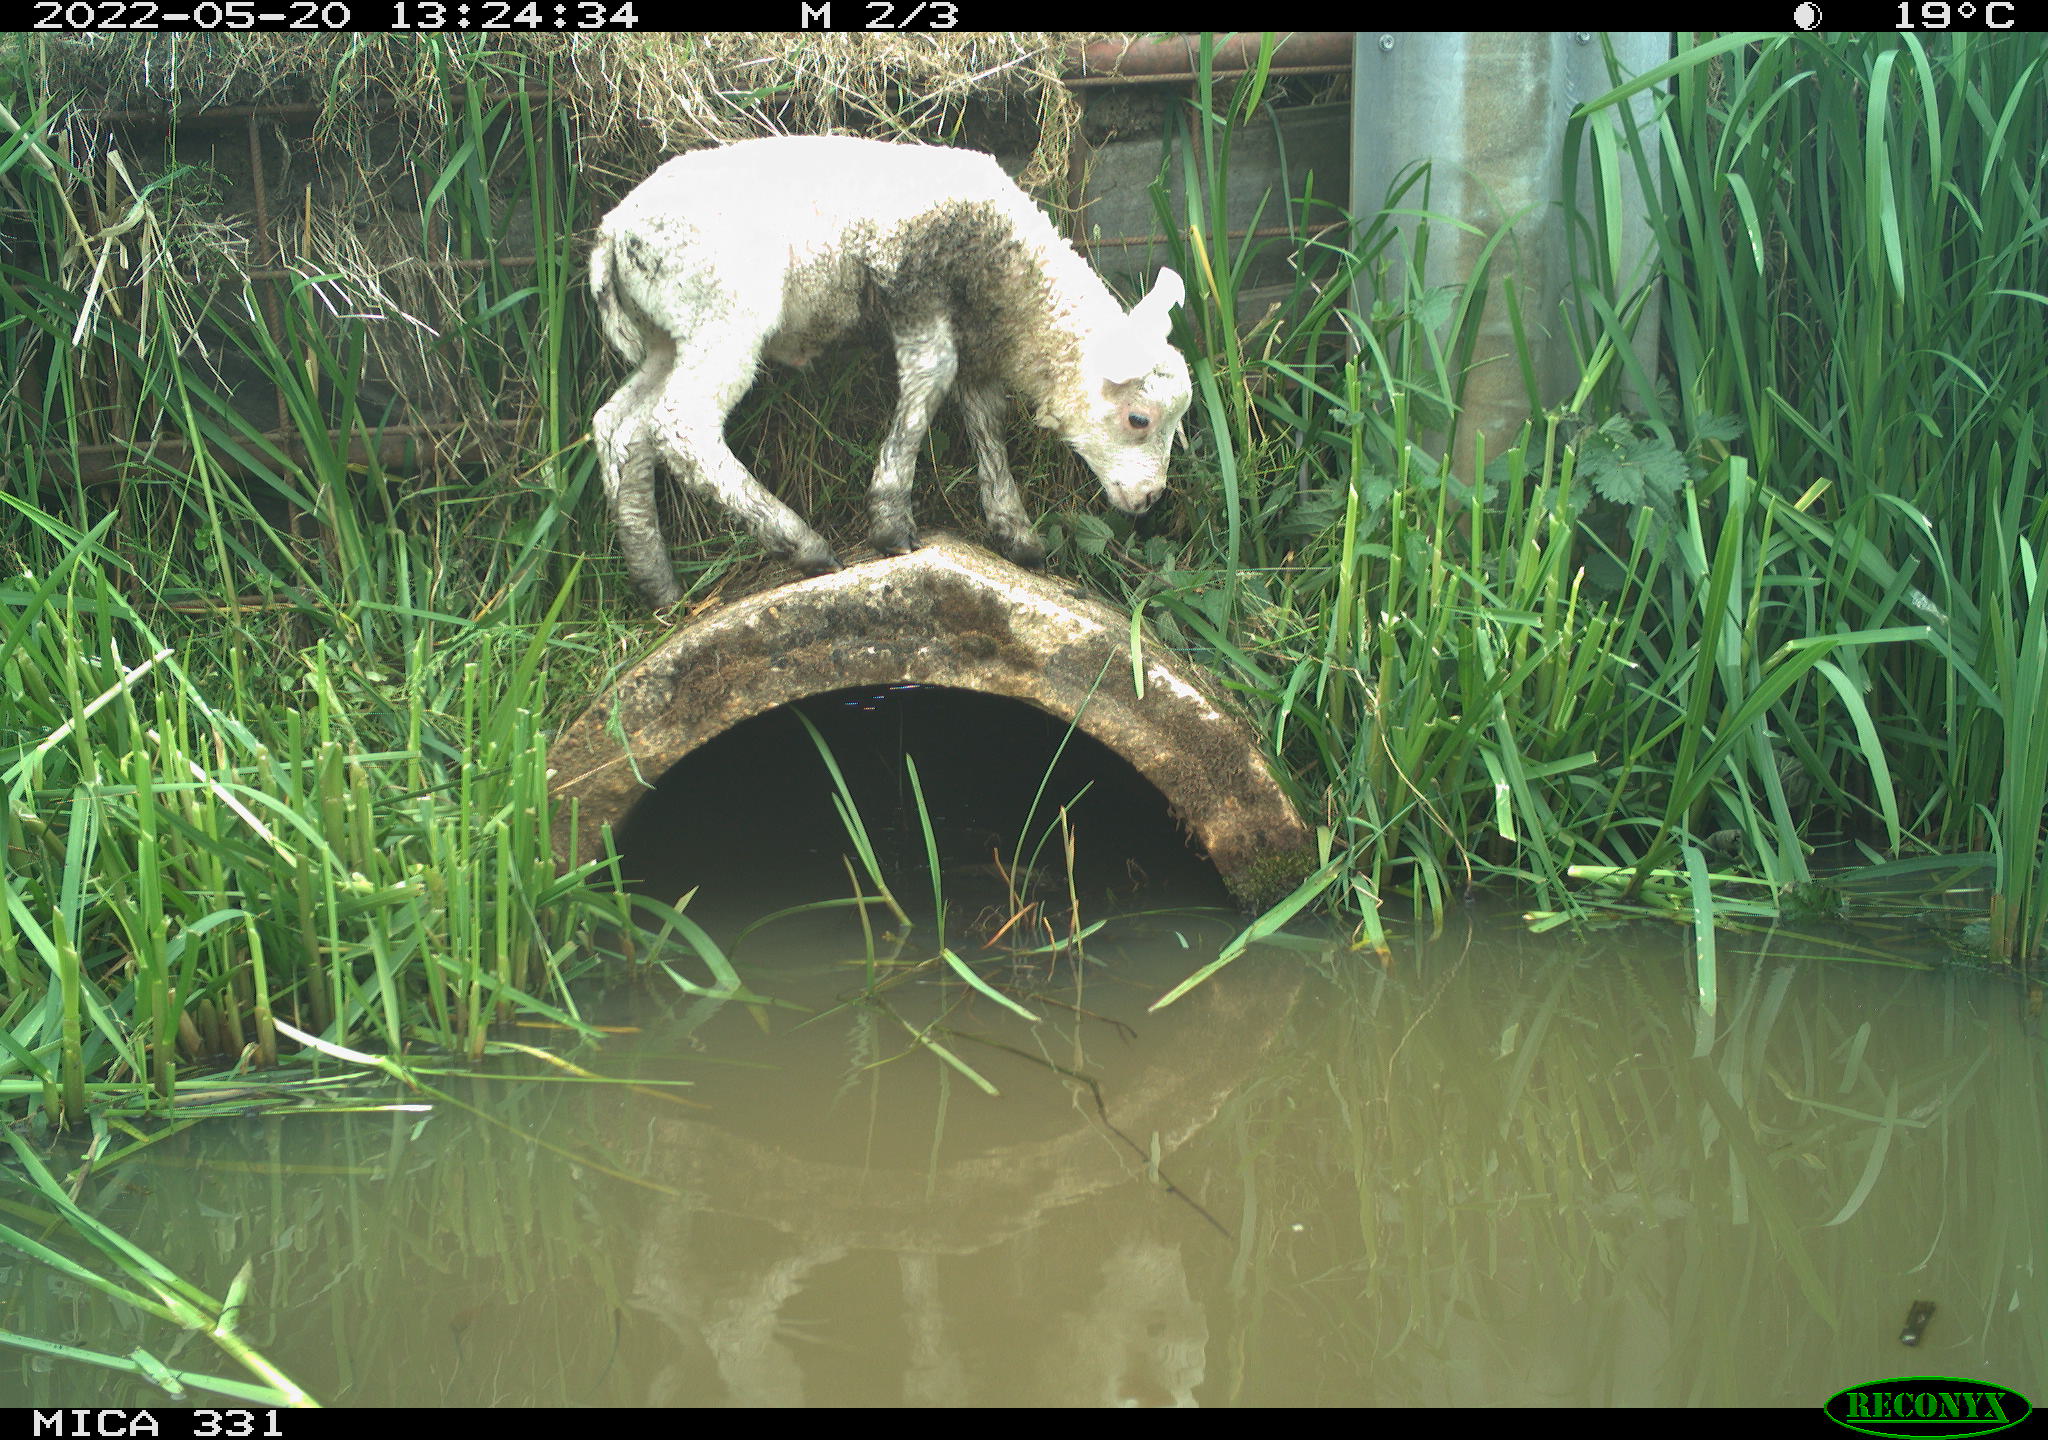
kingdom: Animalia
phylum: Chordata
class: Mammalia
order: Artiodactyla
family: Bovidae
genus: Ovis
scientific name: Ovis aries
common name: Domestic sheep
